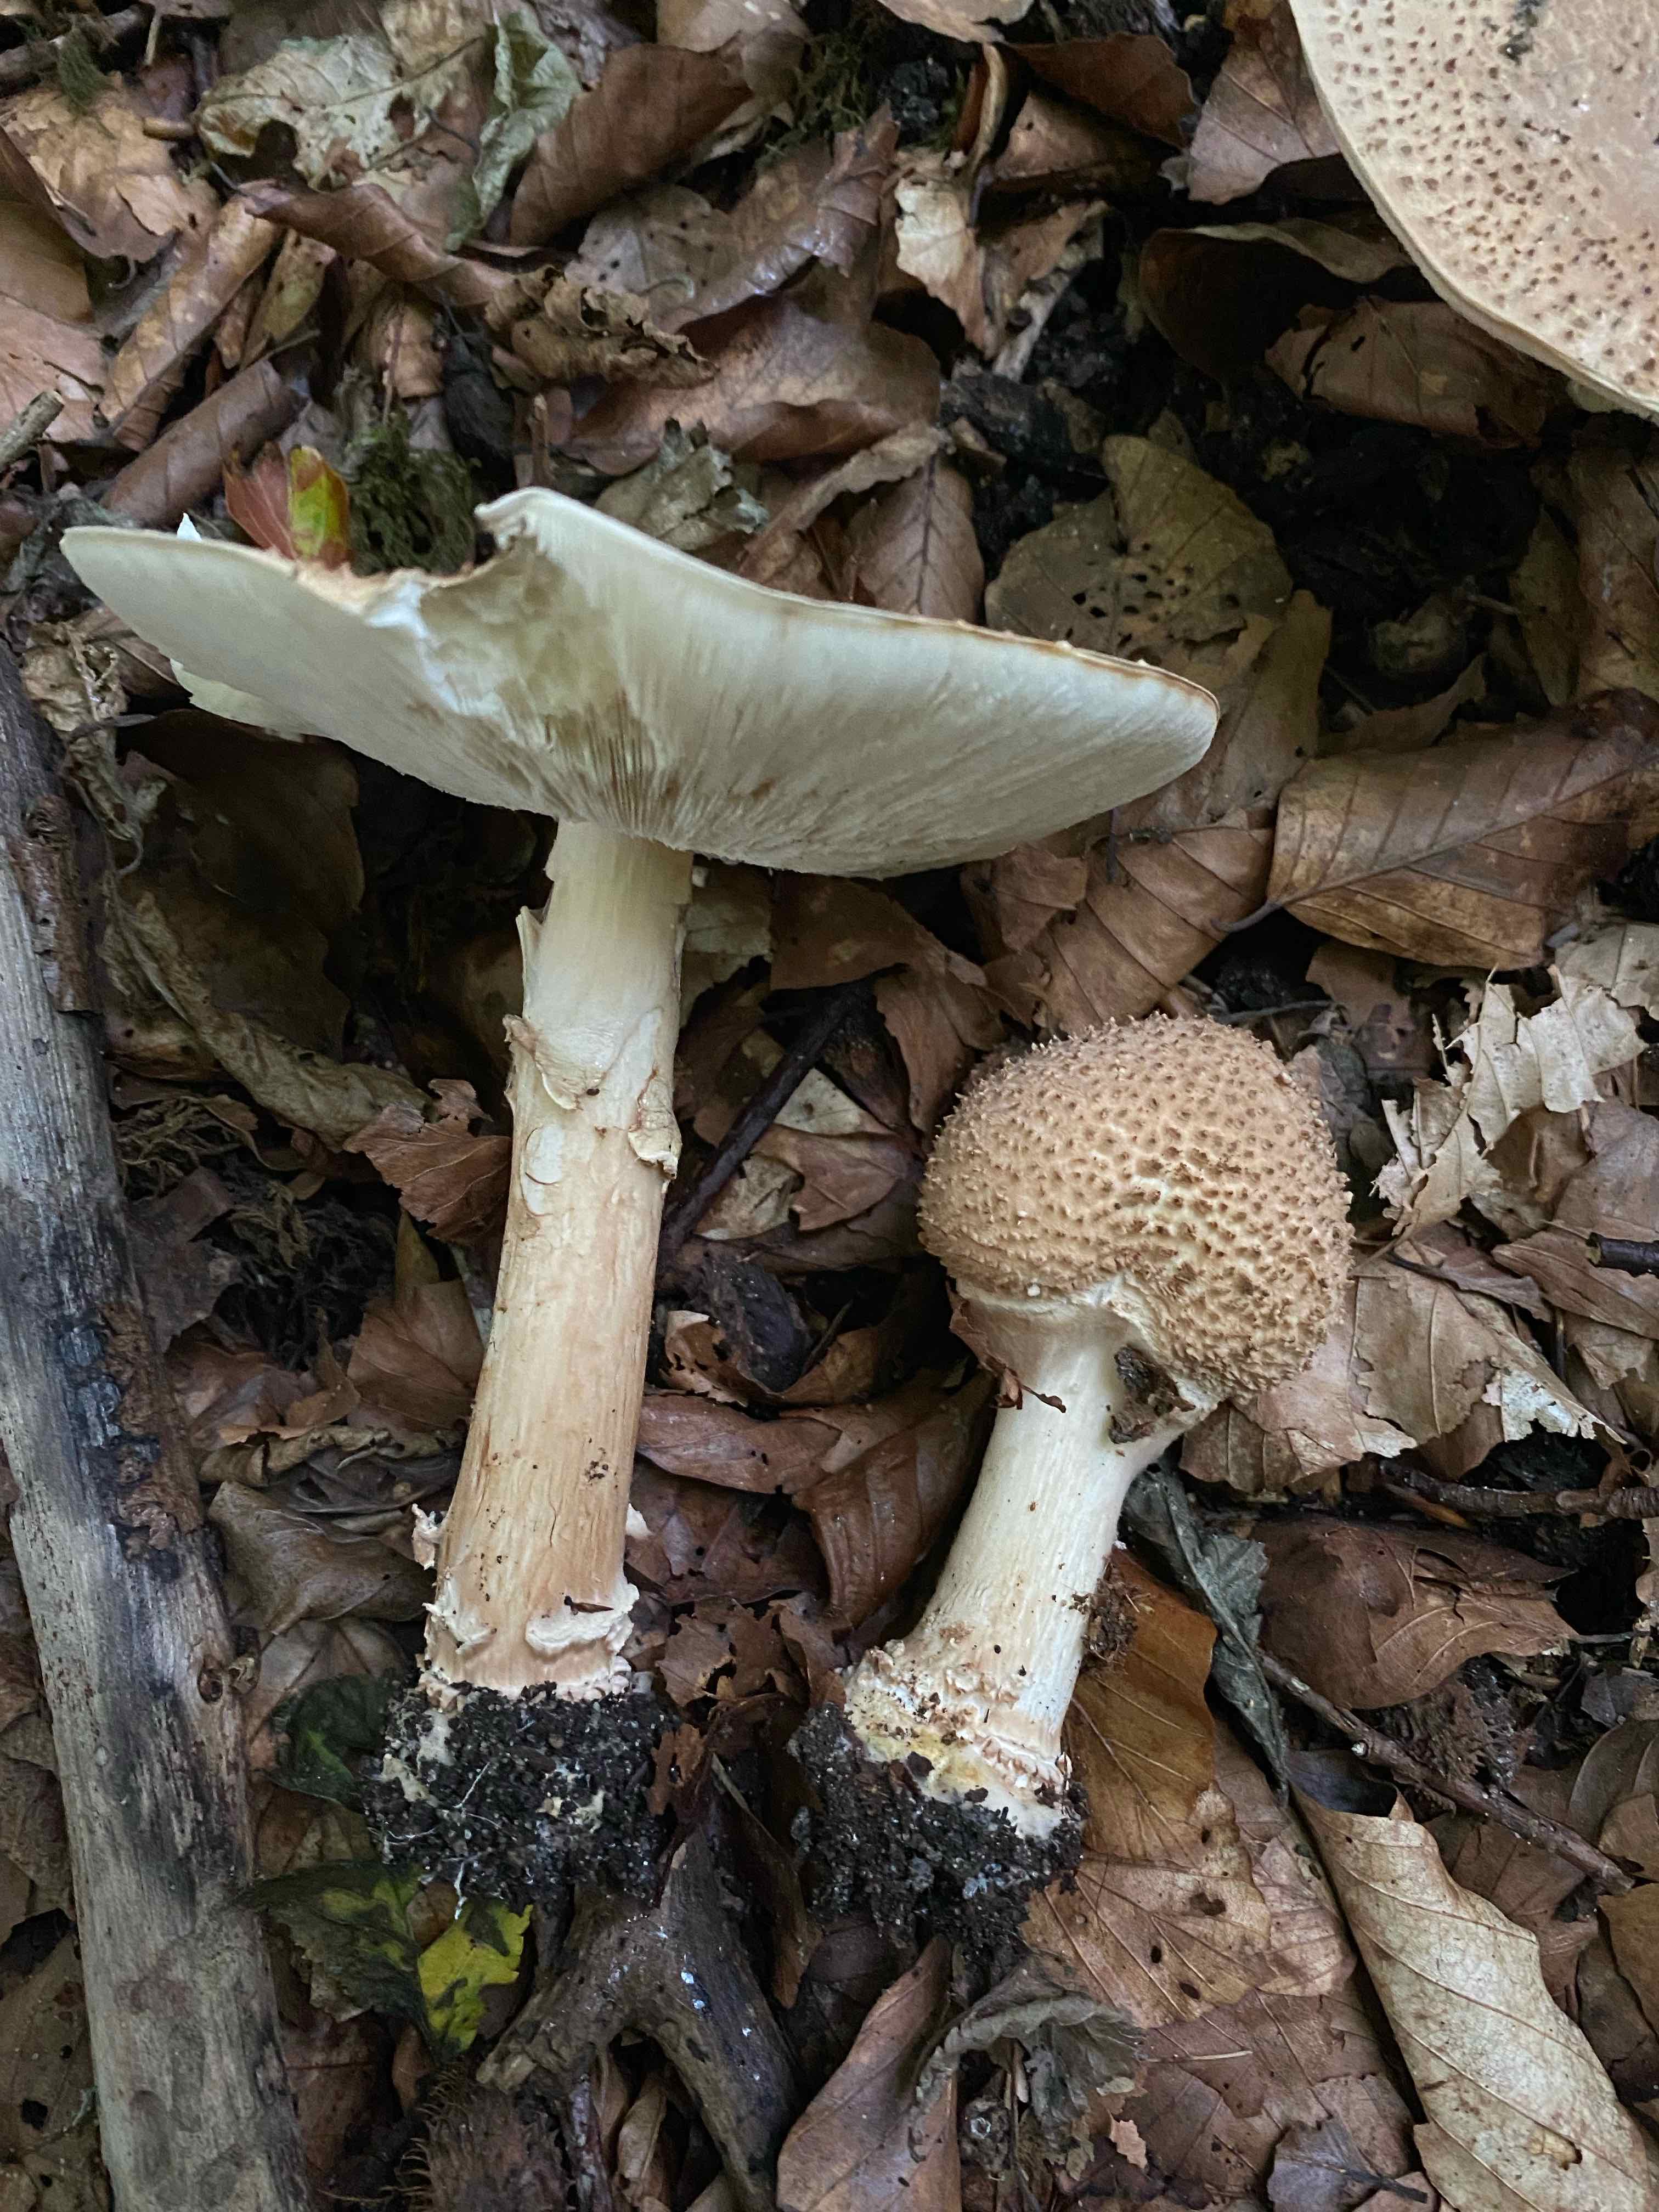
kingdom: Fungi
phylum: Basidiomycota
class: Agaricomycetes
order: Agaricales
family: Agaricaceae
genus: Echinoderma
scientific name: Echinoderma asperum
